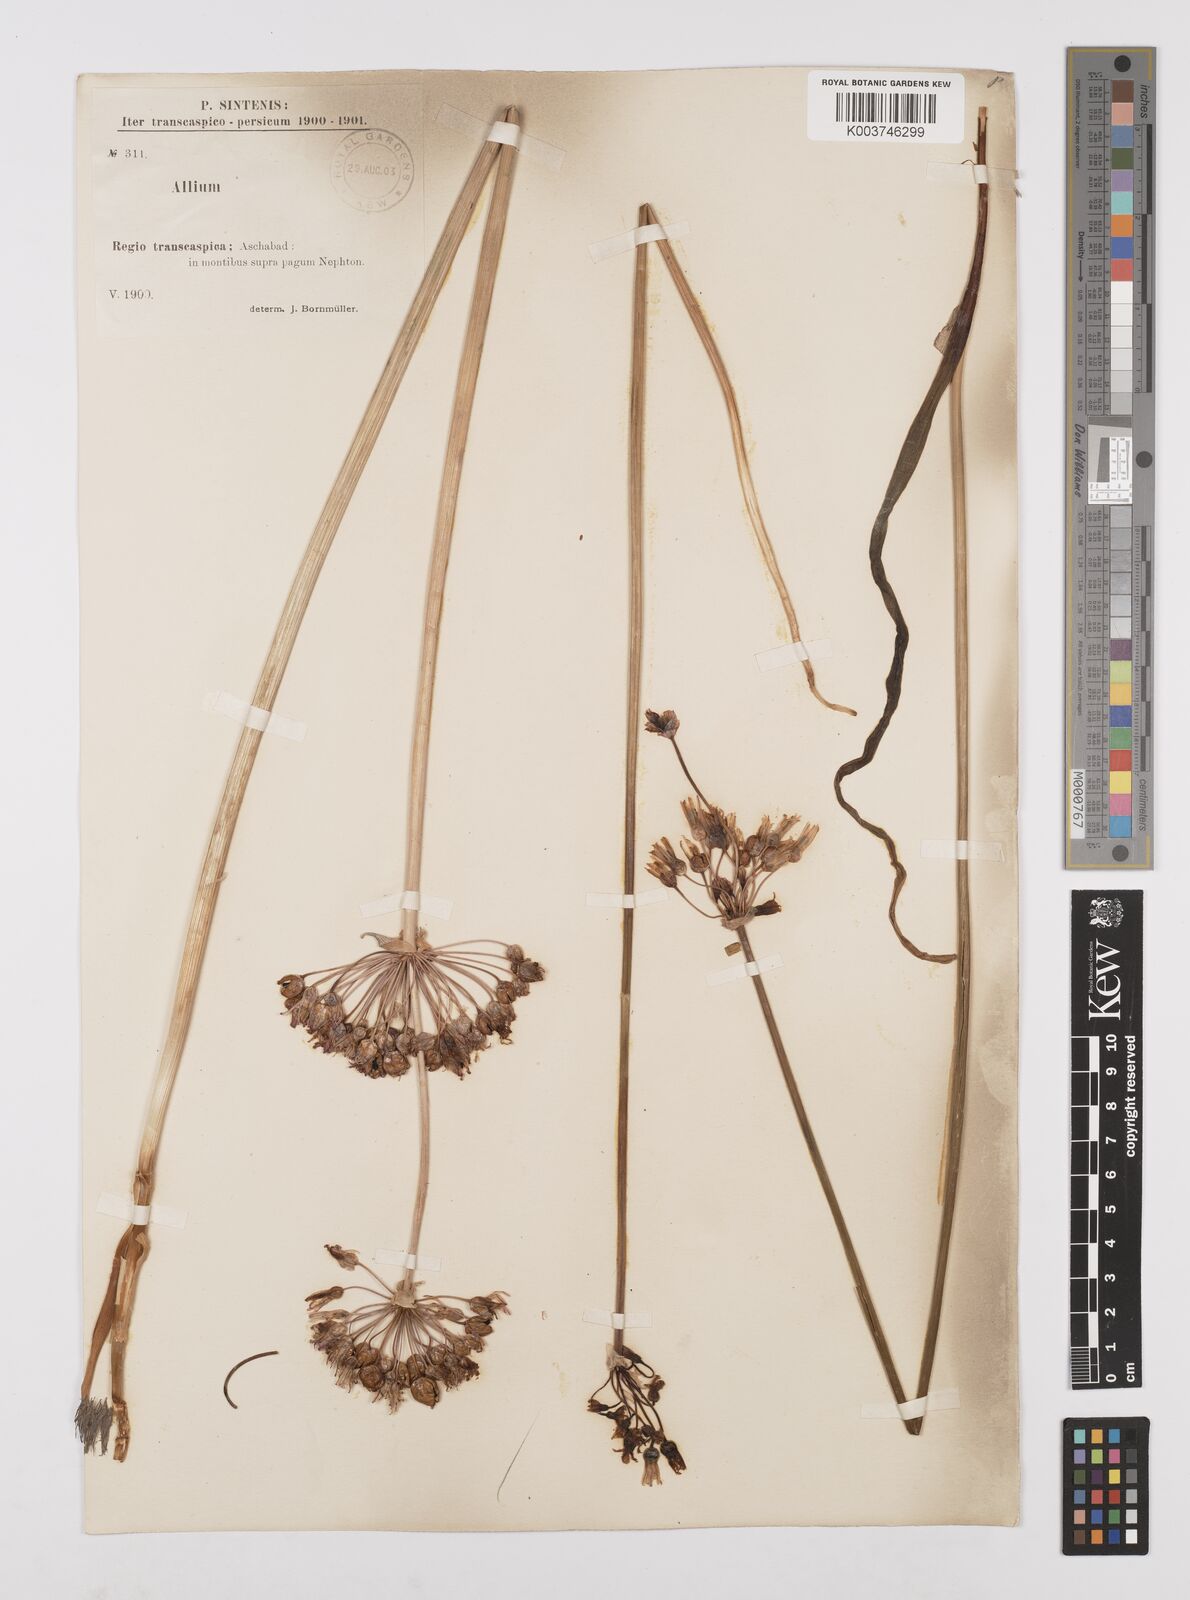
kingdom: Plantae
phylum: Tracheophyta
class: Liliopsida
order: Asparagales
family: Amaryllidaceae
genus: Allium
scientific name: Allium regelii
